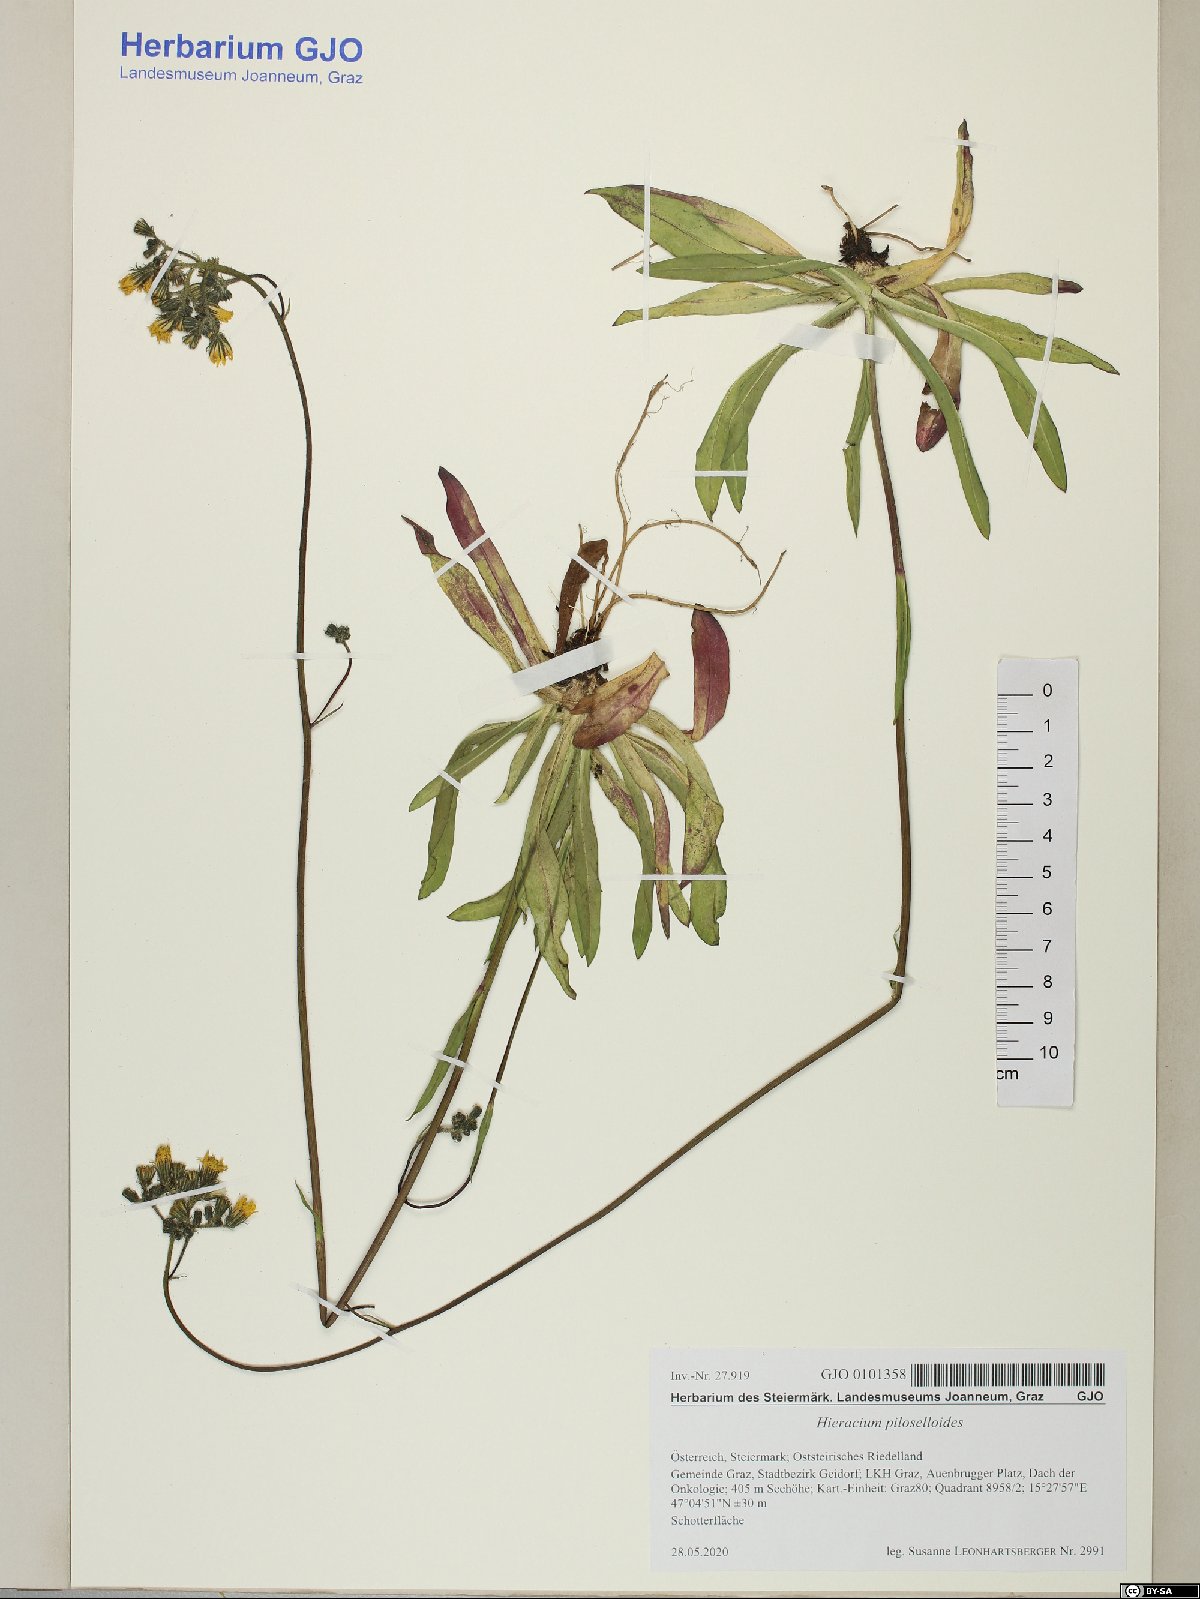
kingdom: Plantae
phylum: Tracheophyta
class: Magnoliopsida
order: Asterales
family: Asteraceae
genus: Pilosella
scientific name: Pilosella piloselloides
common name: Glaucous king-devil
